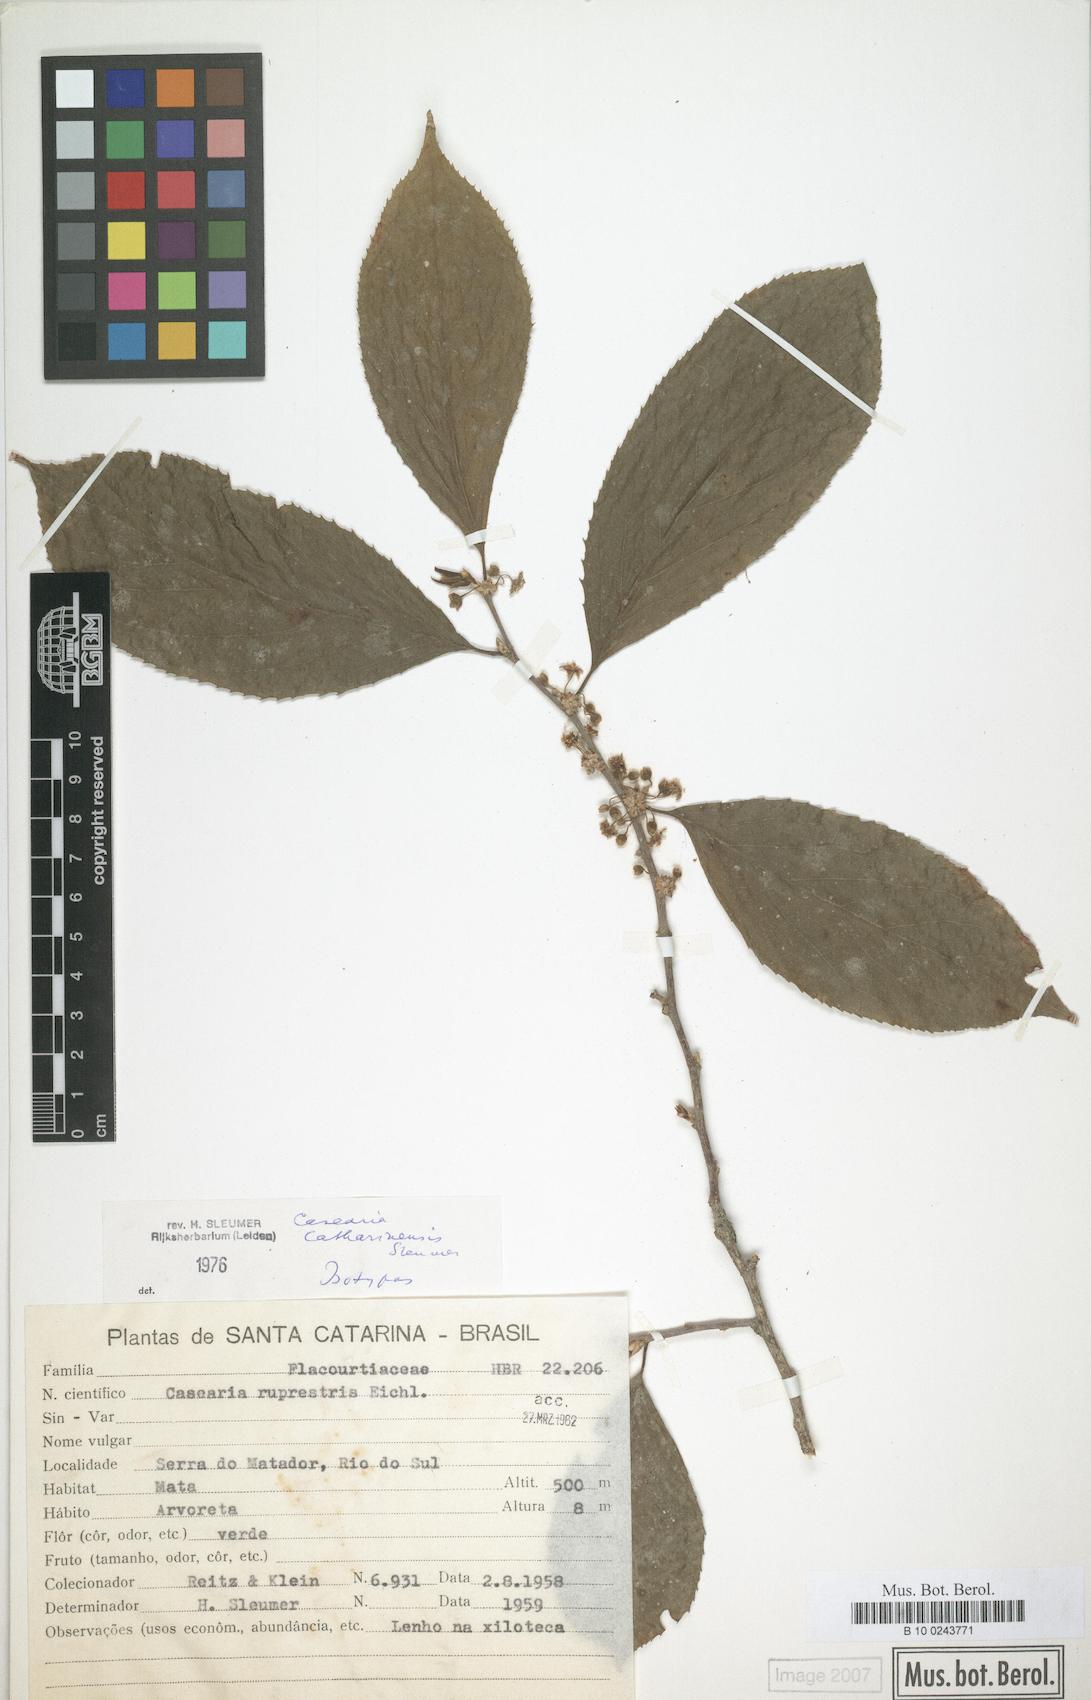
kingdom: Plantae
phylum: Tracheophyta
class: Magnoliopsida
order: Malpighiales
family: Salicaceae
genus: Casearia
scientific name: Casearia catharinensis
